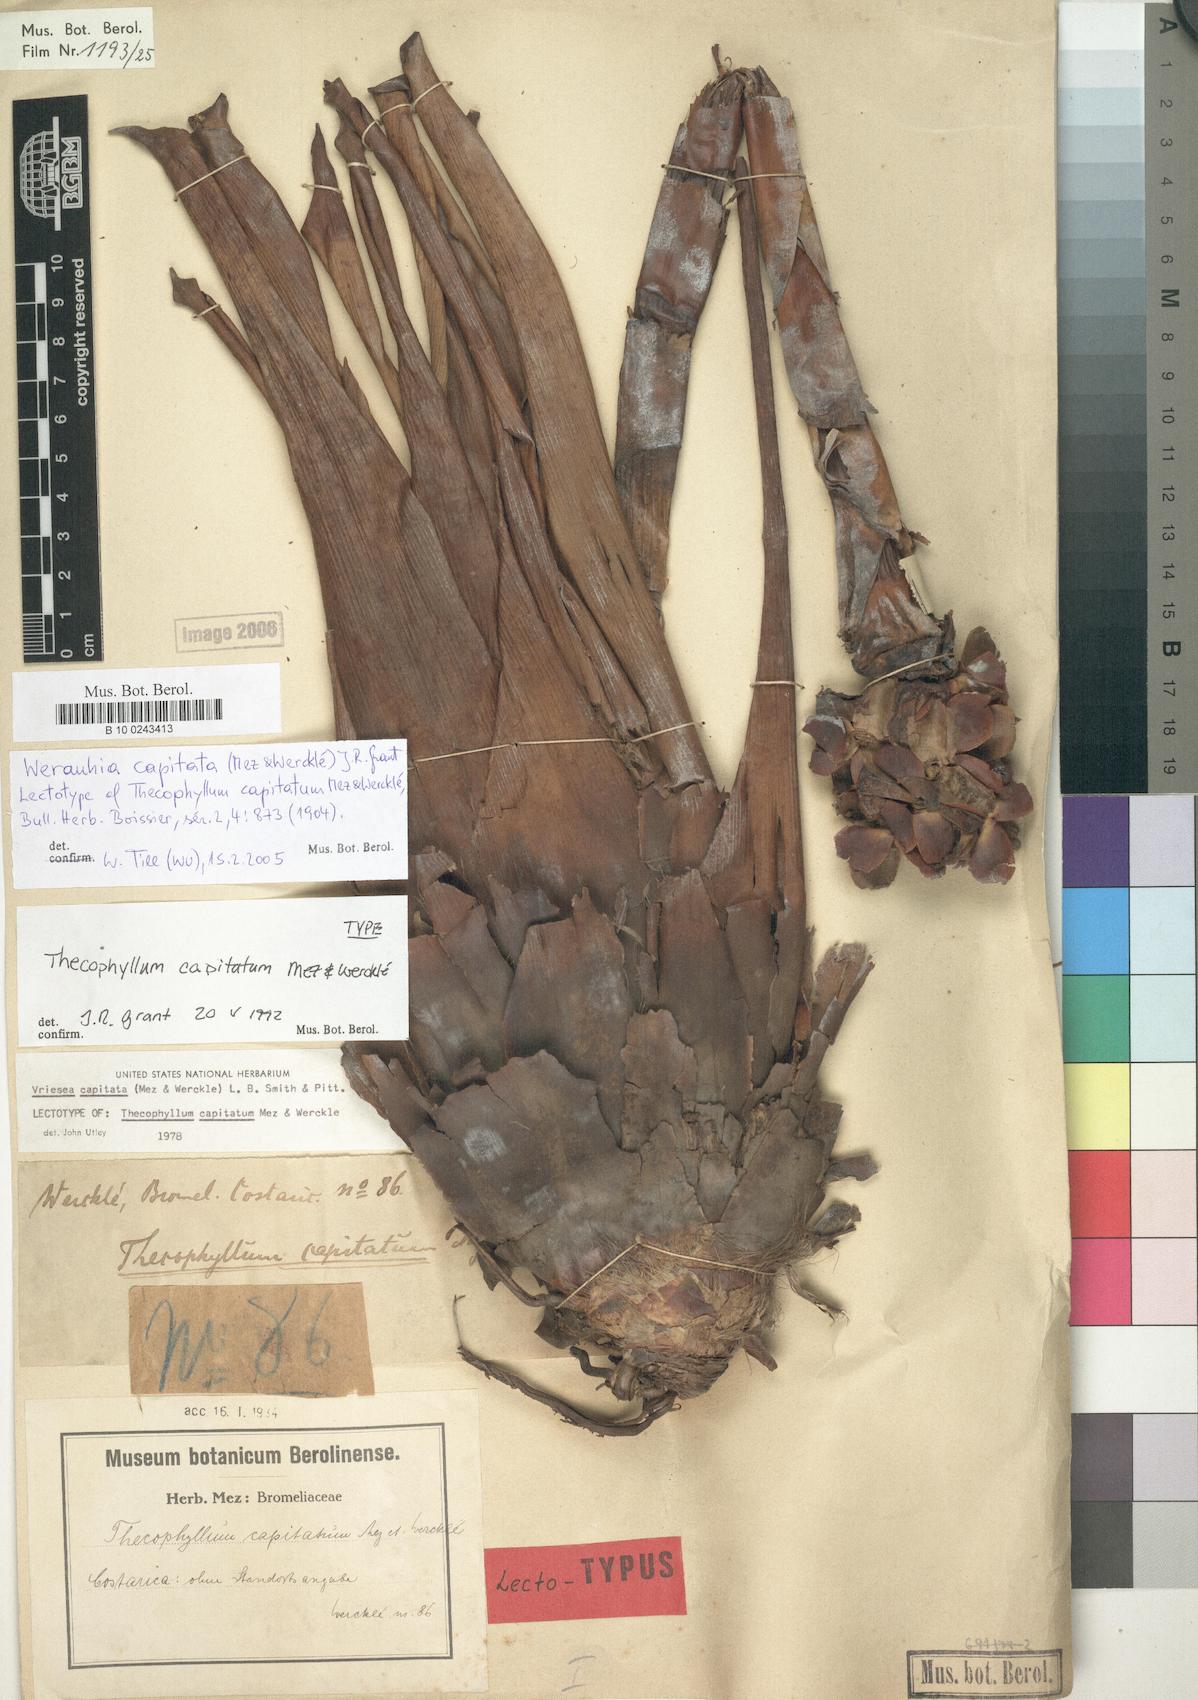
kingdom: Plantae
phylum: Tracheophyta
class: Liliopsida
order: Poales
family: Bromeliaceae
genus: Werauhia
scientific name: Werauhia capitata
